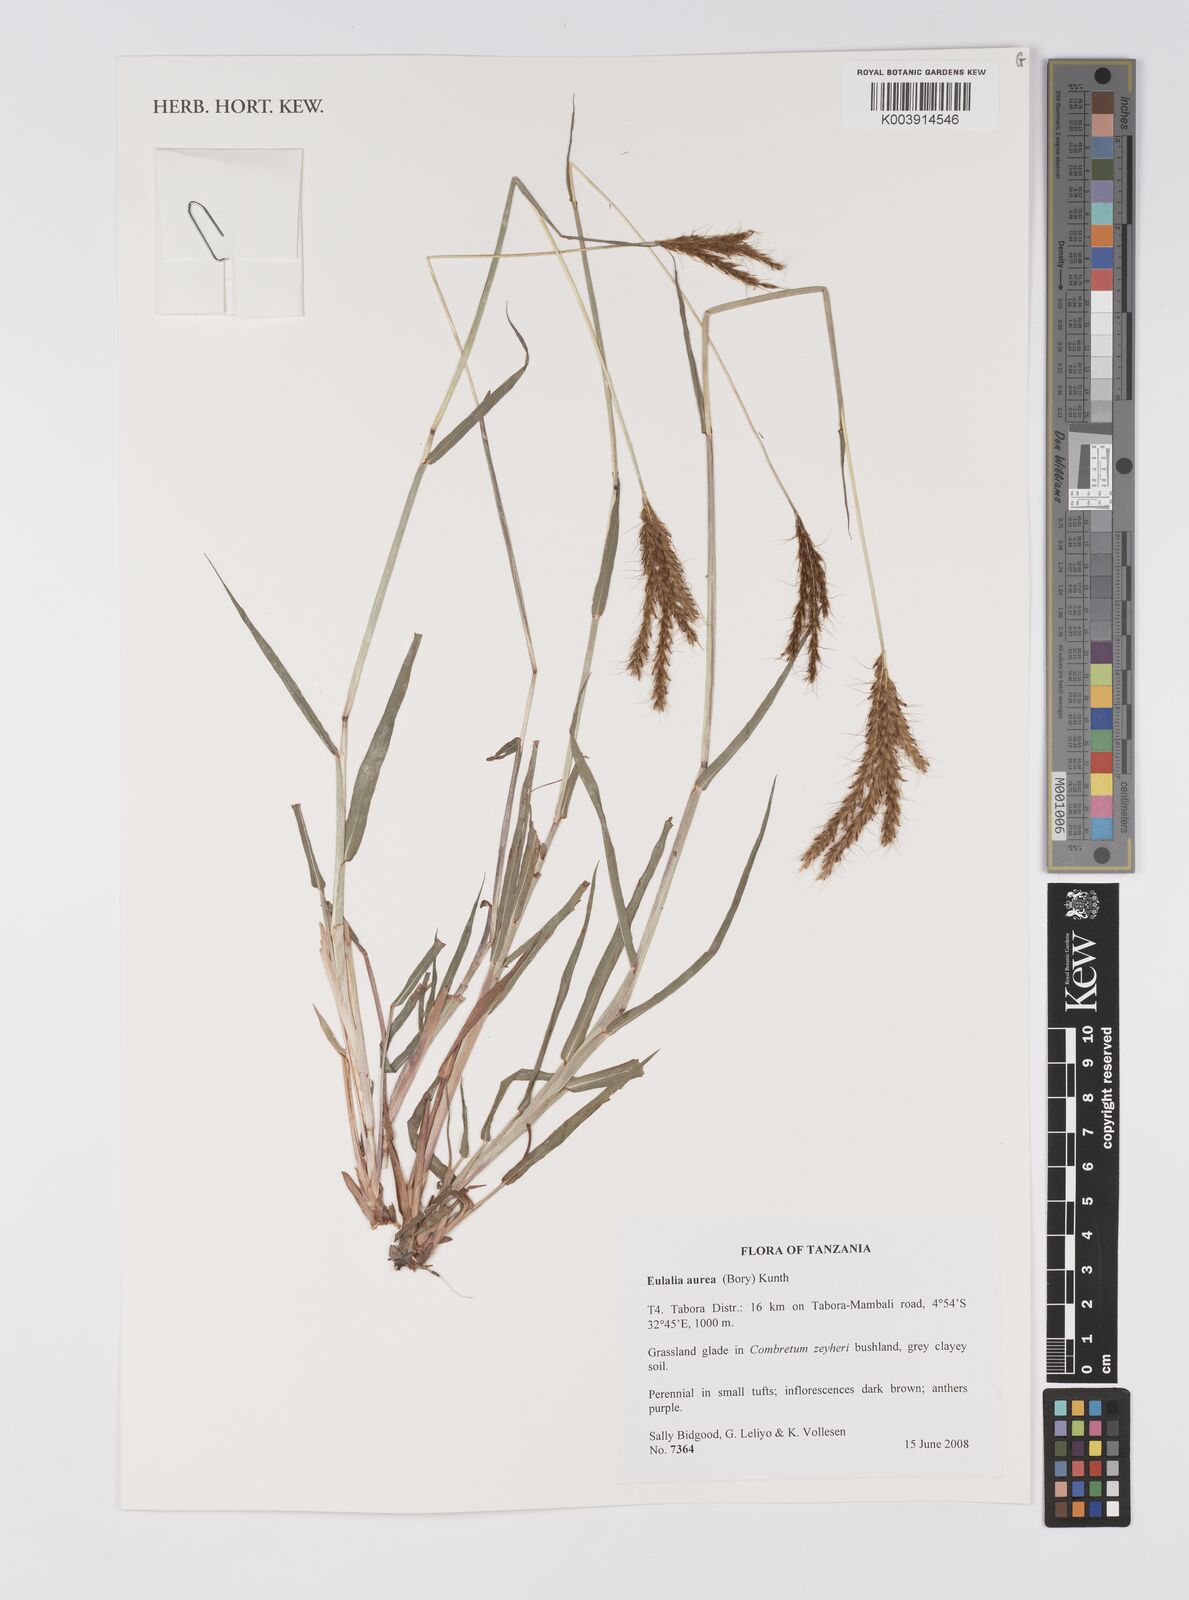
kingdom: Plantae
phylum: Tracheophyta
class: Liliopsida
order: Poales
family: Poaceae
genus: Eulalia
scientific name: Eulalia aurea
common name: Silky browntop
